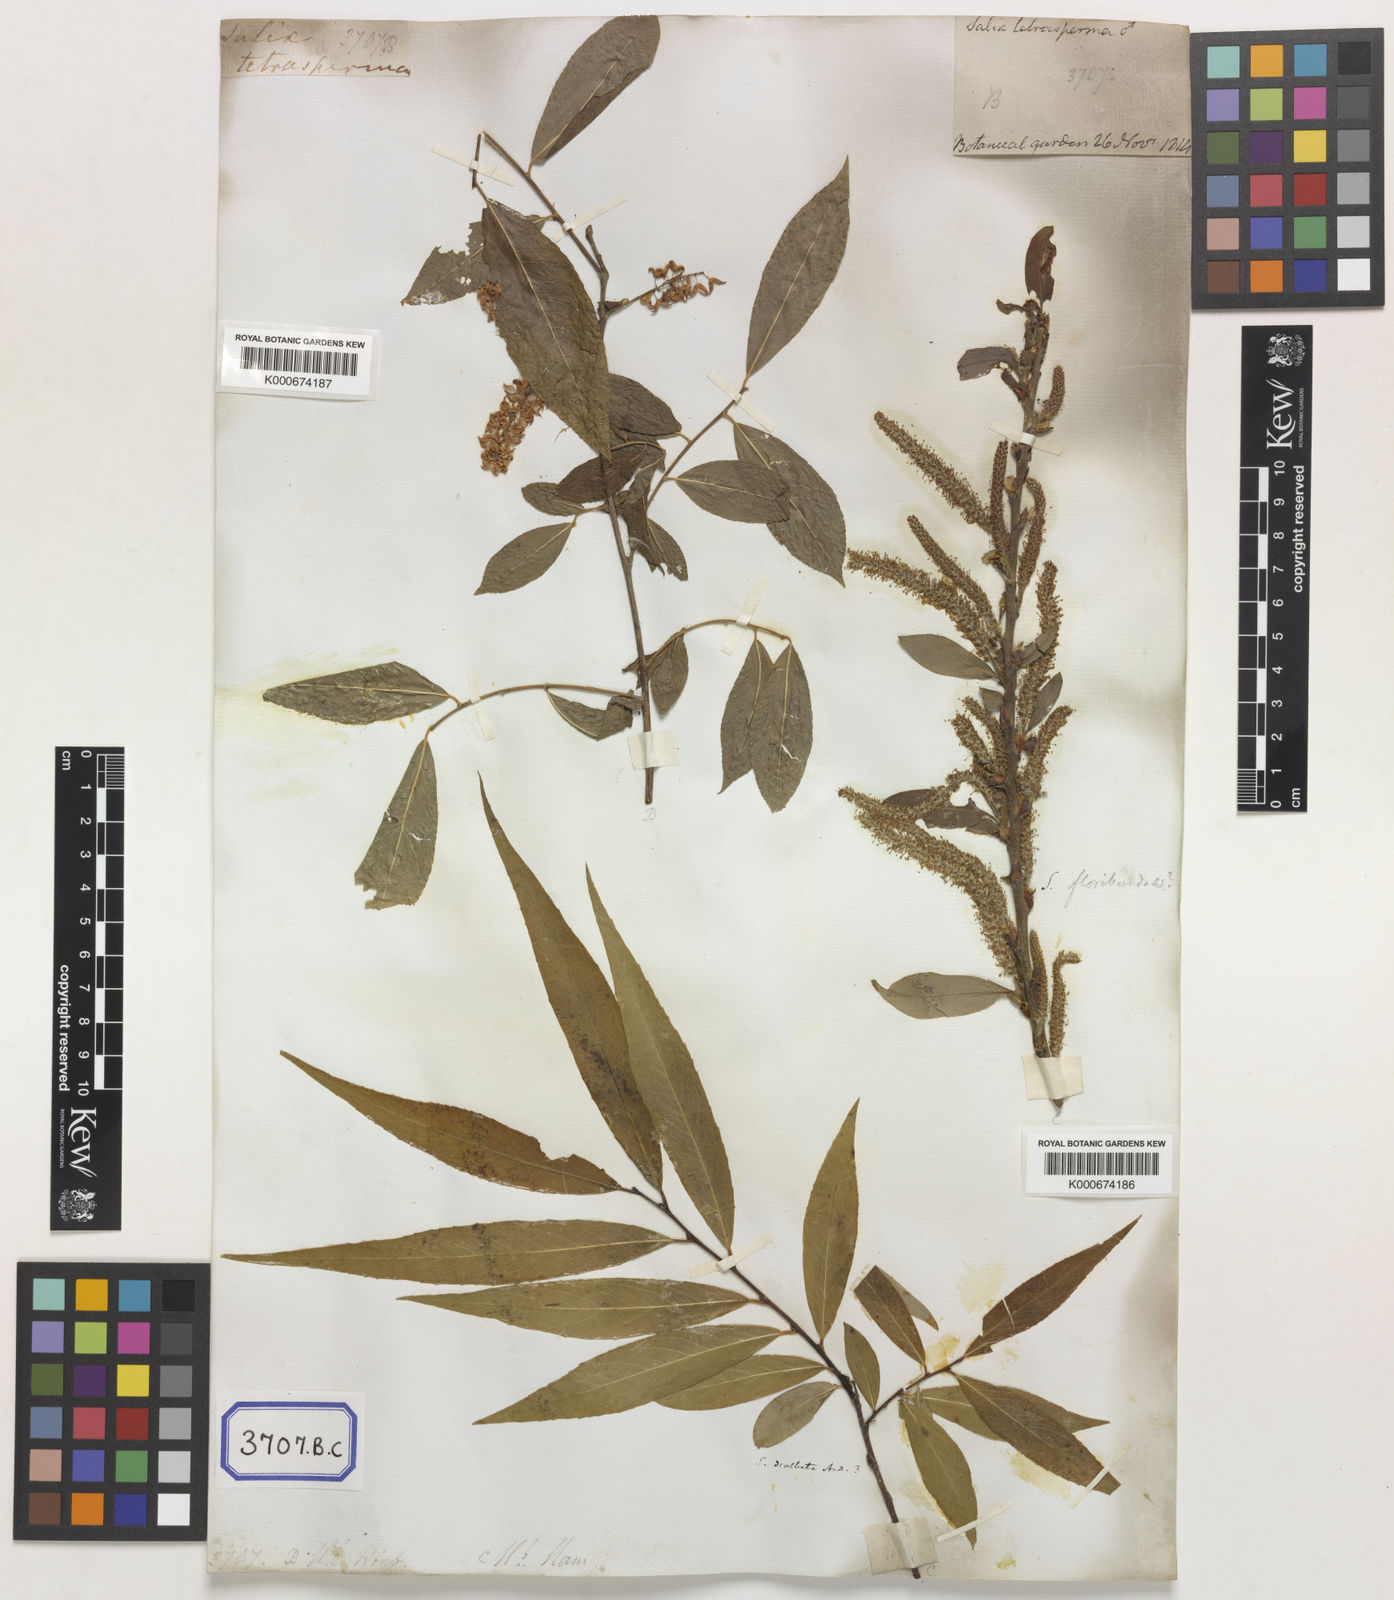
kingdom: Plantae
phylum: Tracheophyta
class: Magnoliopsida
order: Malpighiales
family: Salicaceae
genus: Salix
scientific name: Salix tetrasperma
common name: Indian willow
